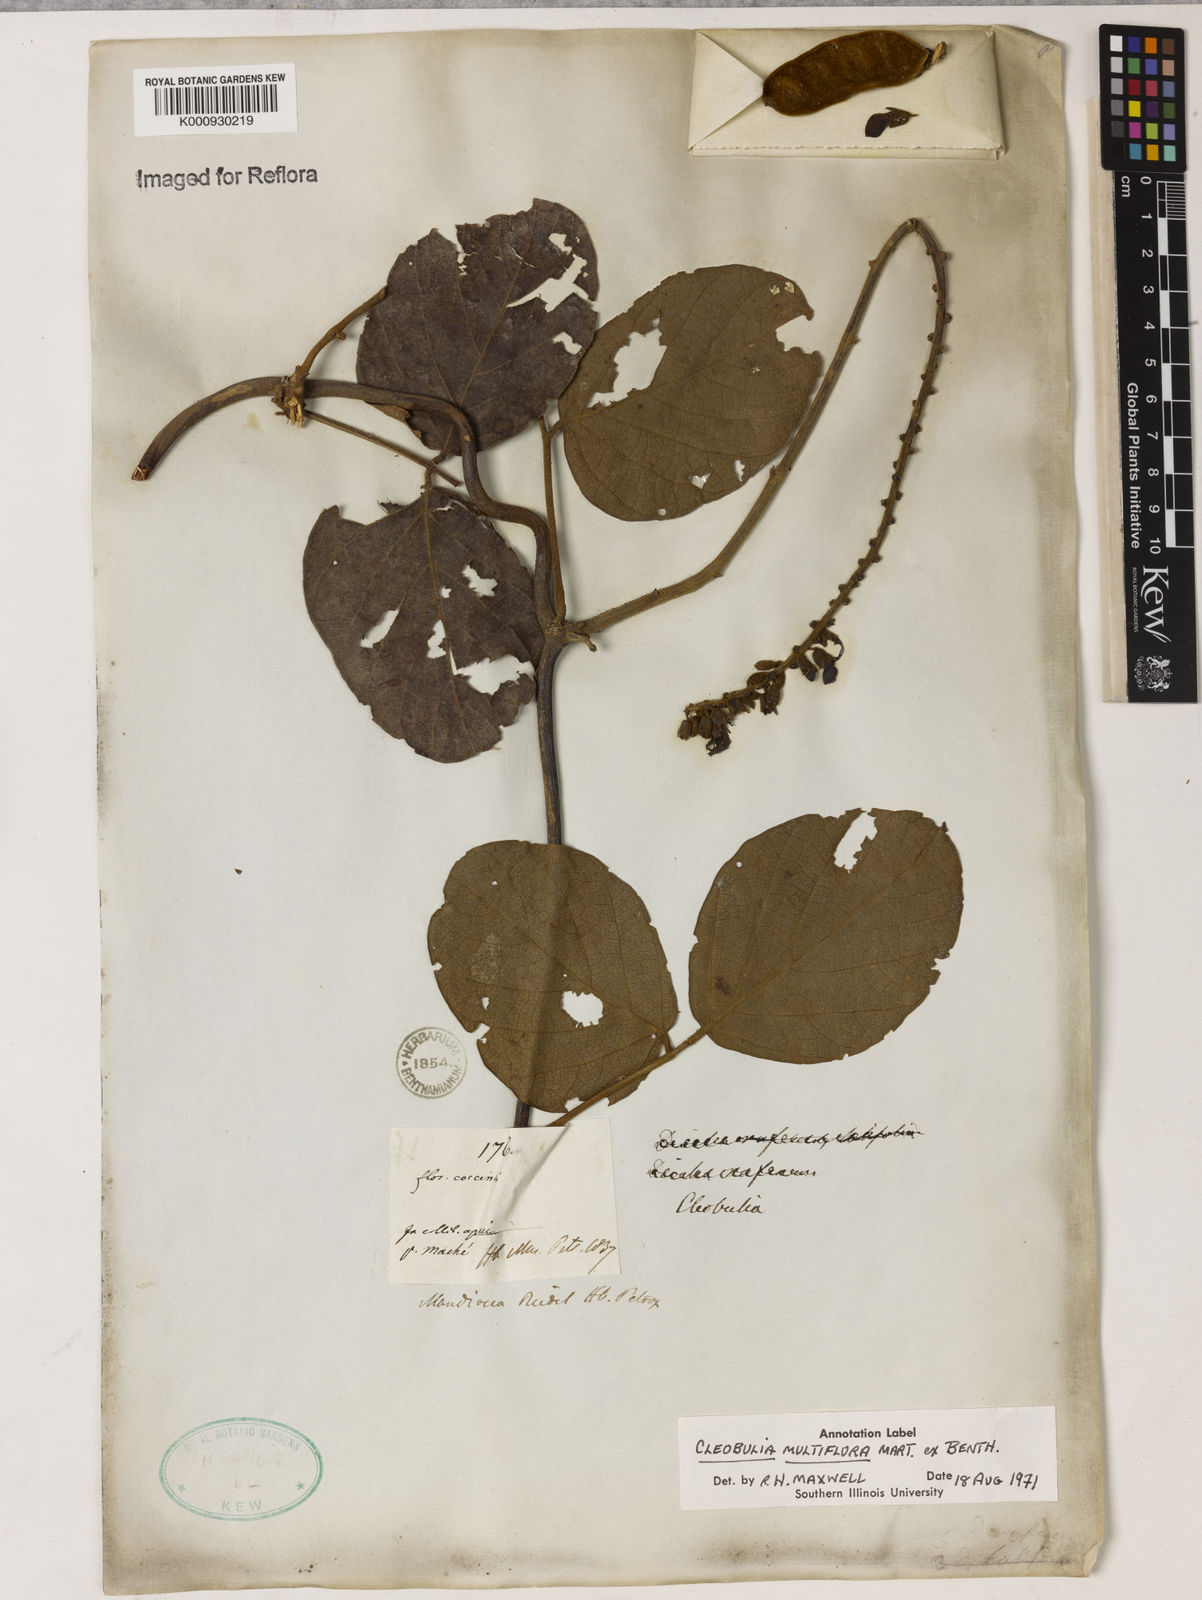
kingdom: Plantae
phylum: Tracheophyta
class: Magnoliopsida
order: Fabales
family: Fabaceae
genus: Cleobulia
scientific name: Cleobulia coccinea
